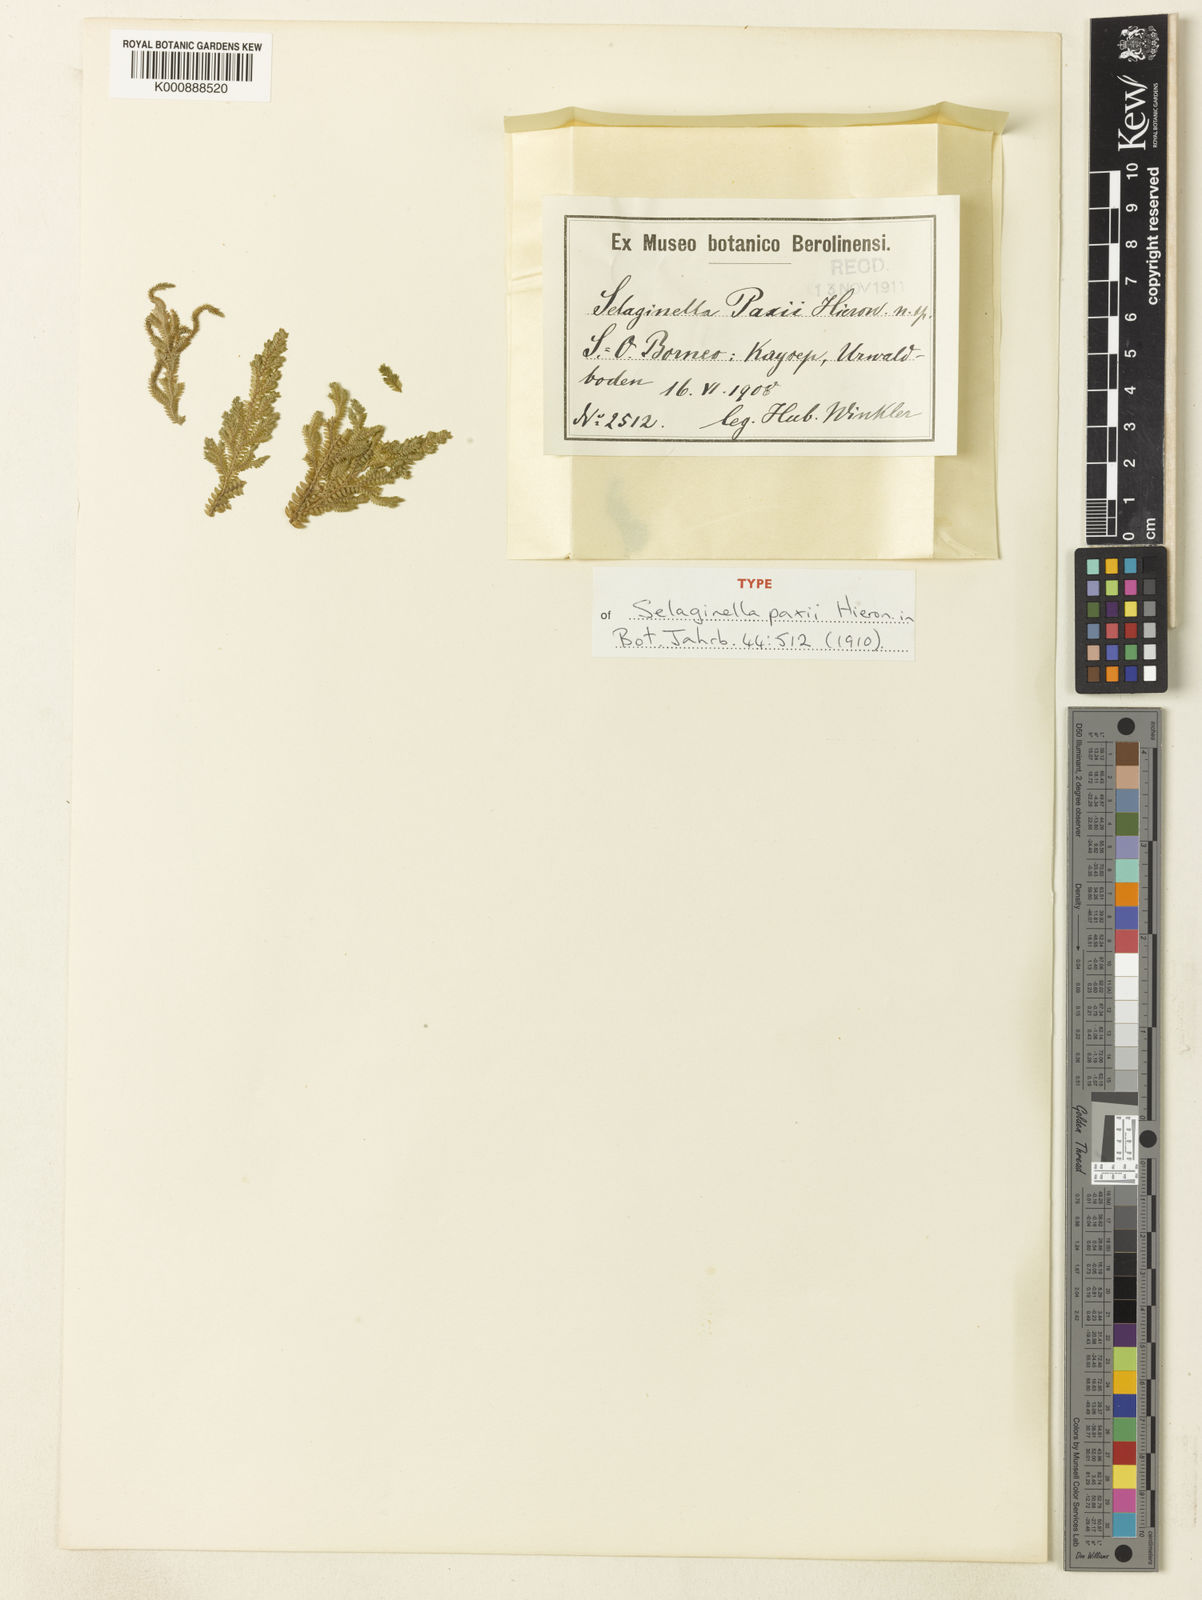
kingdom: Plantae
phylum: Tracheophyta
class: Lycopodiopsida
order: Selaginellales
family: Selaginellaceae
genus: Selaginella
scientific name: Selaginella paxii
